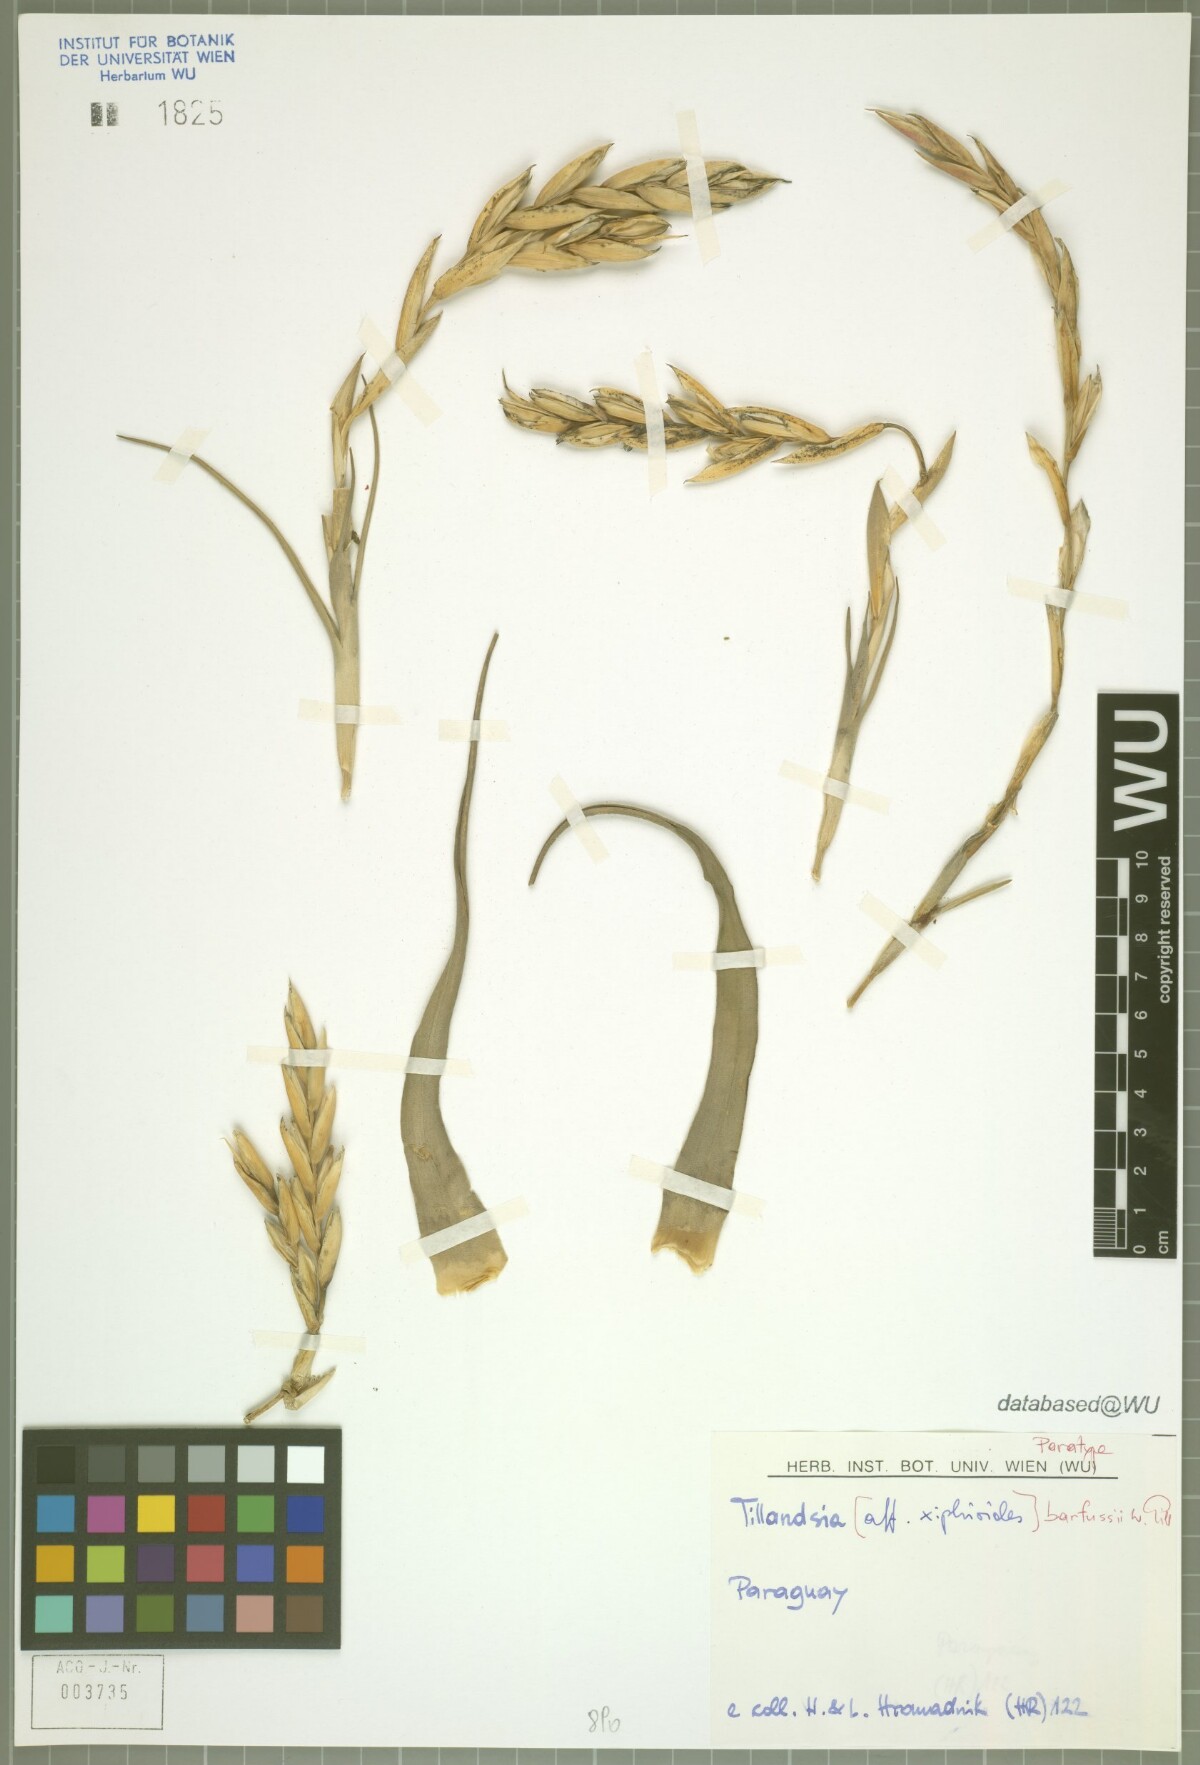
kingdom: Plantae
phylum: Tracheophyta
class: Liliopsida
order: Poales
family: Bromeliaceae
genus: Tillandsia
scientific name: Tillandsia barfussii
